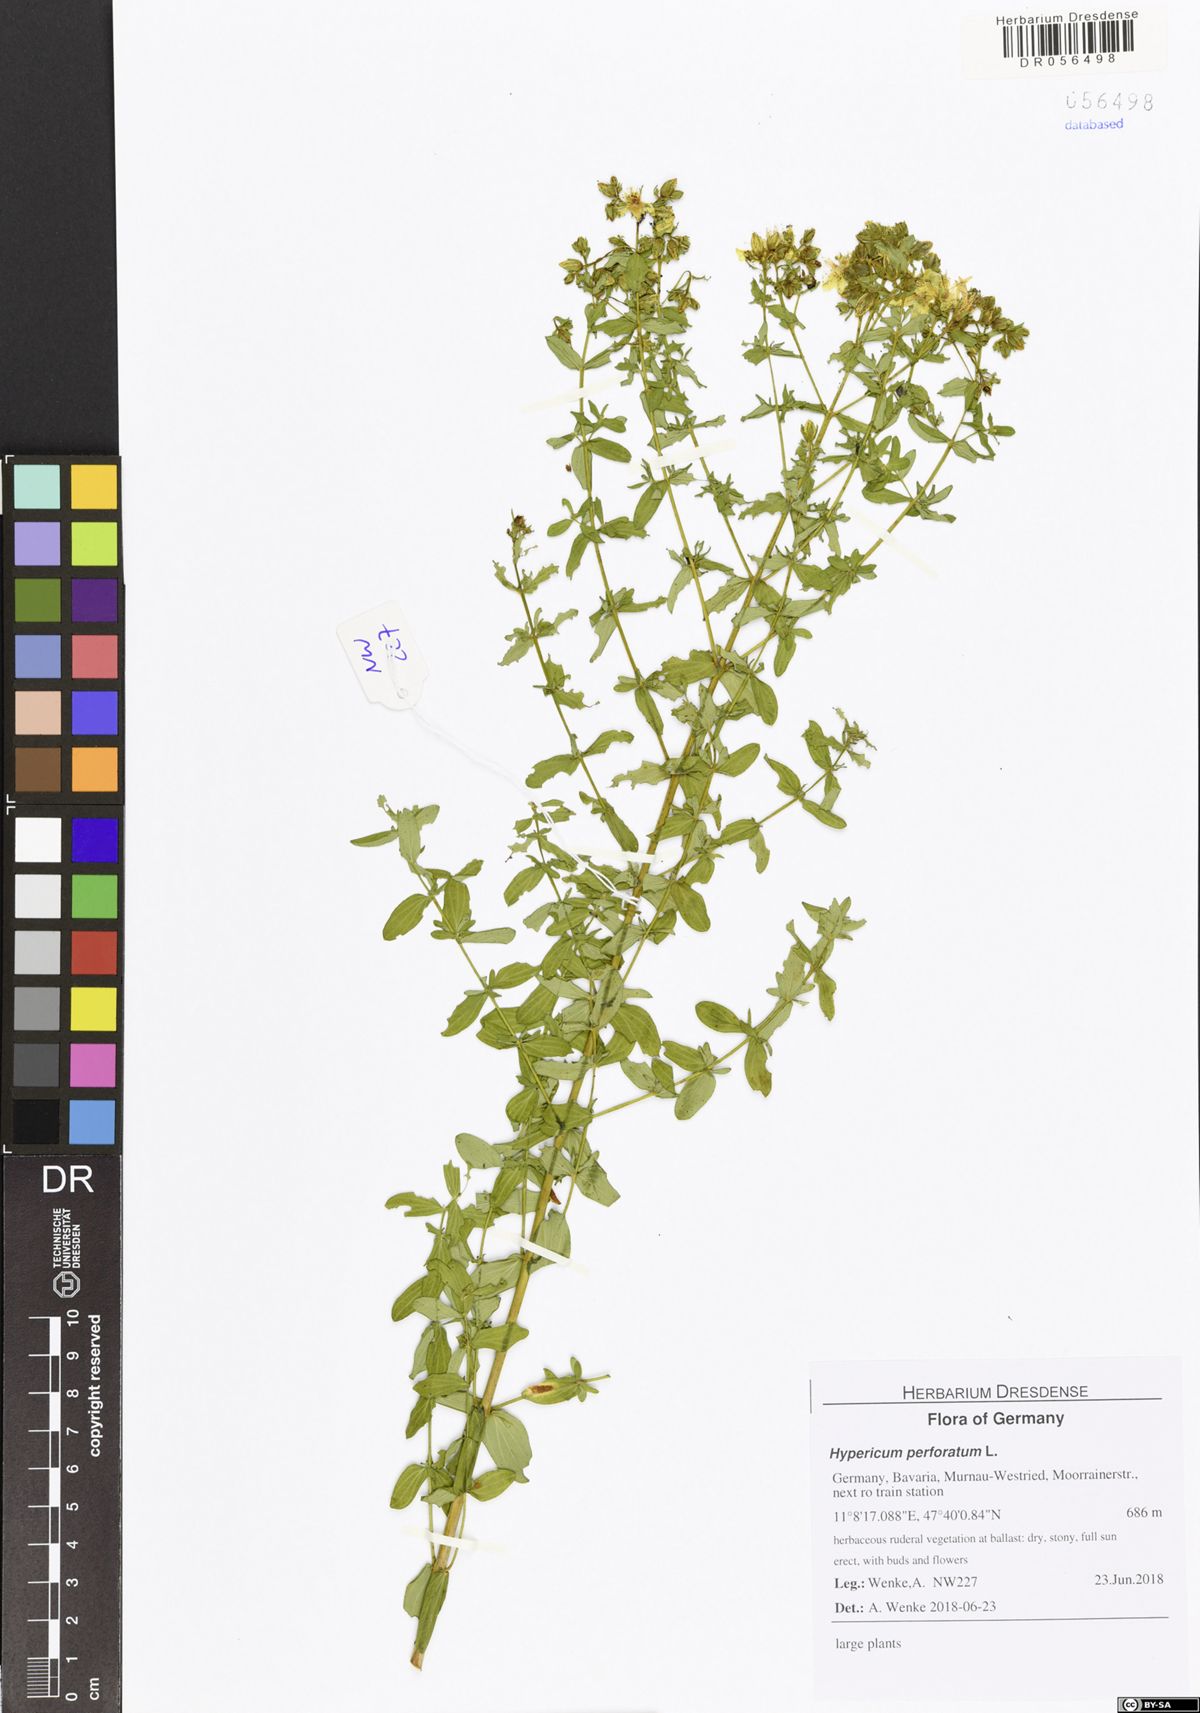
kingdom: Plantae
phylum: Tracheophyta
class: Magnoliopsida
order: Malpighiales
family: Hypericaceae
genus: Hypericum
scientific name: Hypericum perforatum
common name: Common st. johnswort
